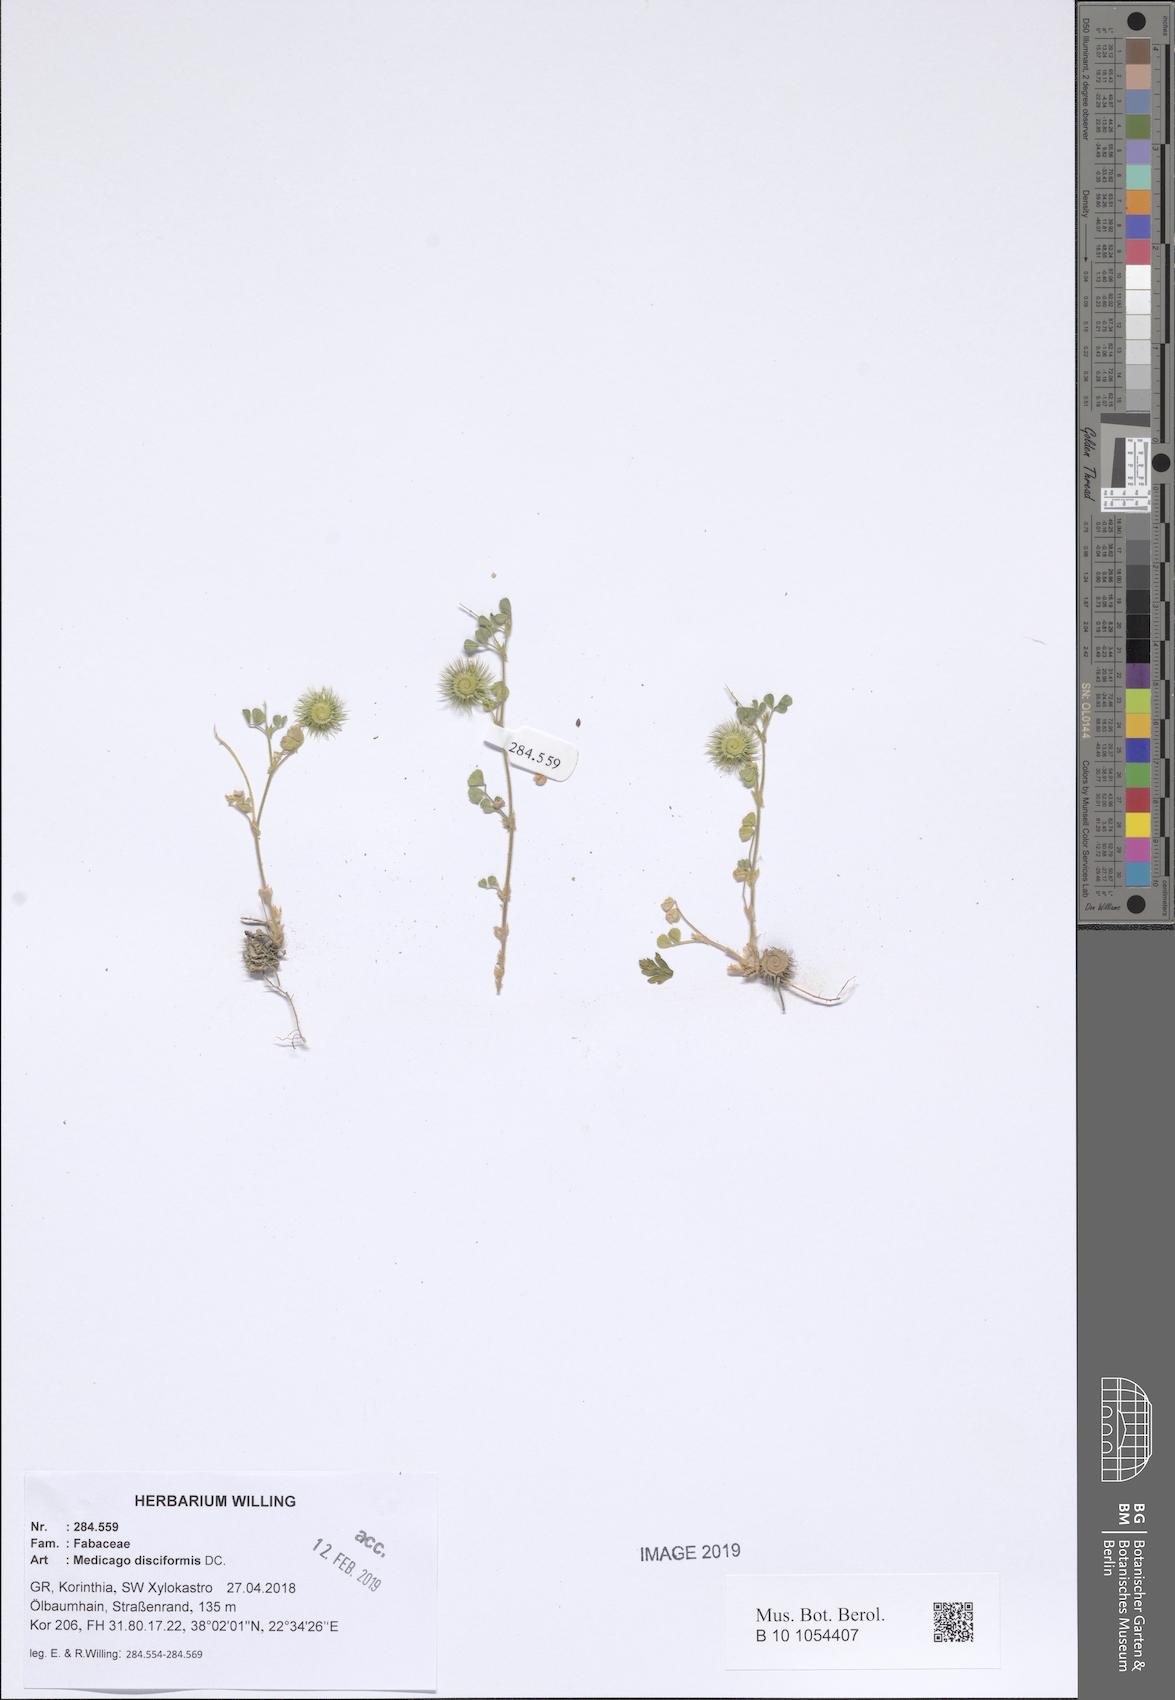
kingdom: Plantae
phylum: Tracheophyta
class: Magnoliopsida
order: Fabales
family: Fabaceae
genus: Medicago
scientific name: Medicago disciformis
